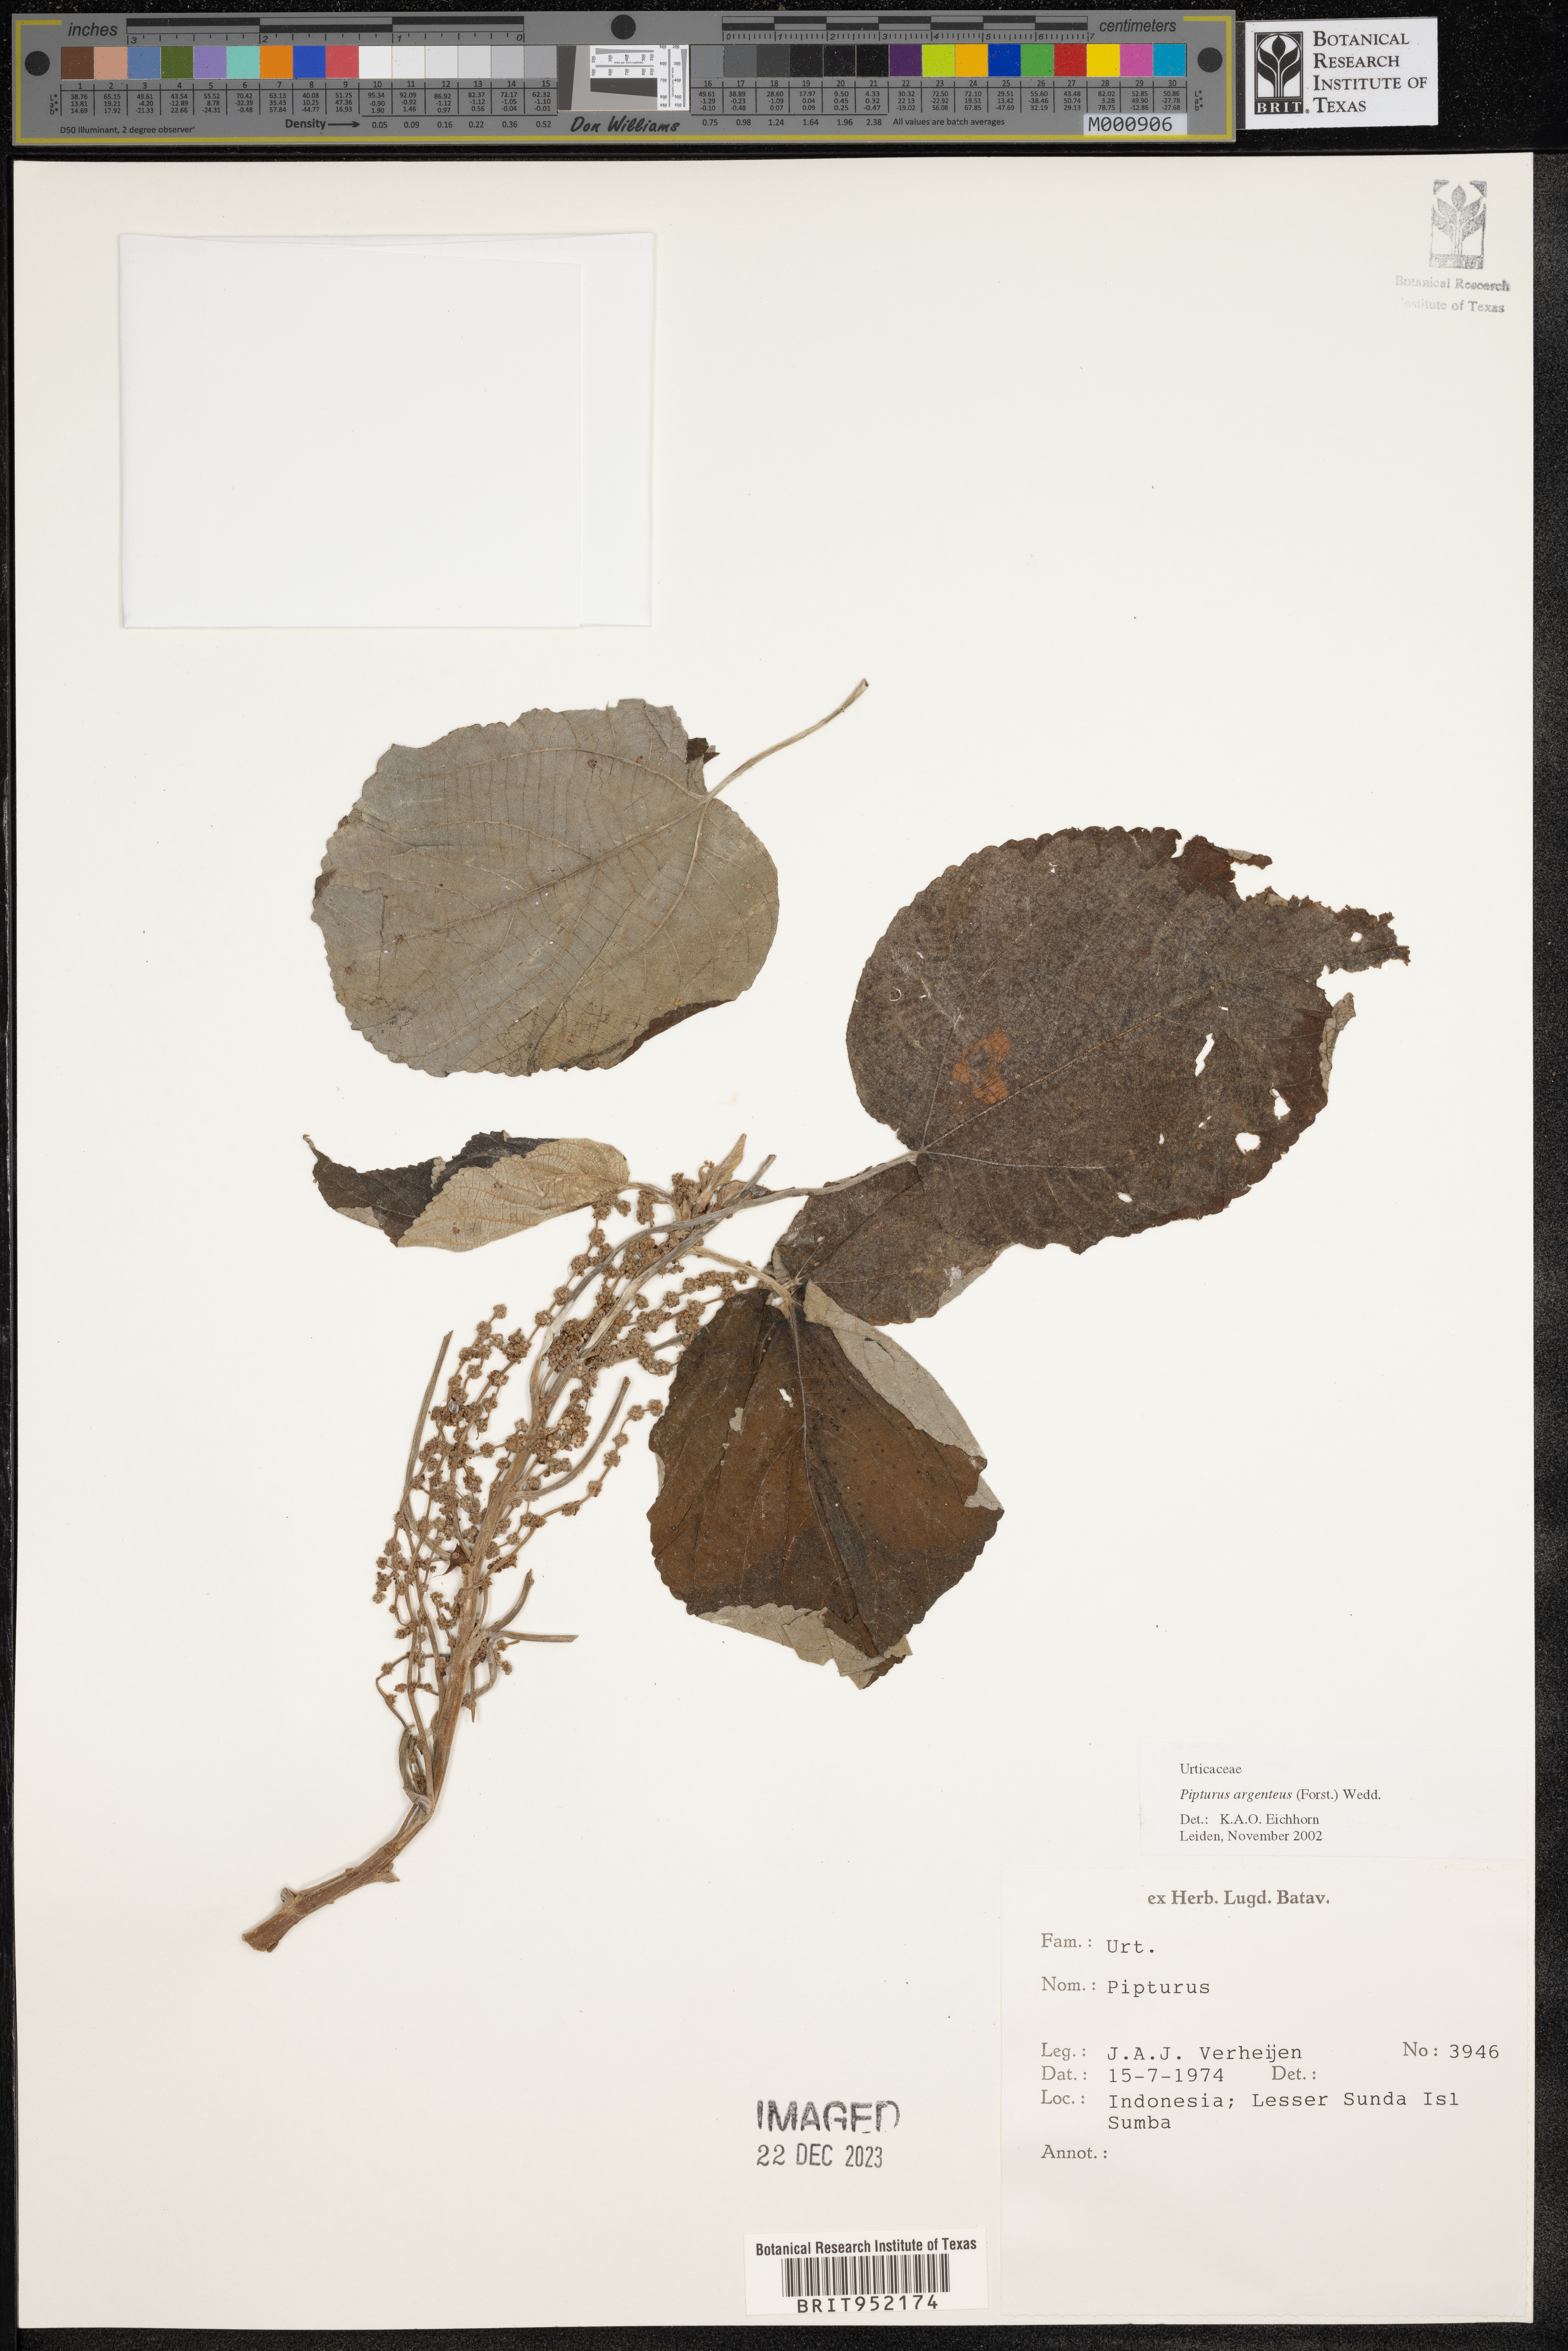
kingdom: Plantae
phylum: Tracheophyta
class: Magnoliopsida
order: Rosales
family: Urticaceae
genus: Pipturus
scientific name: Pipturus argenteus
